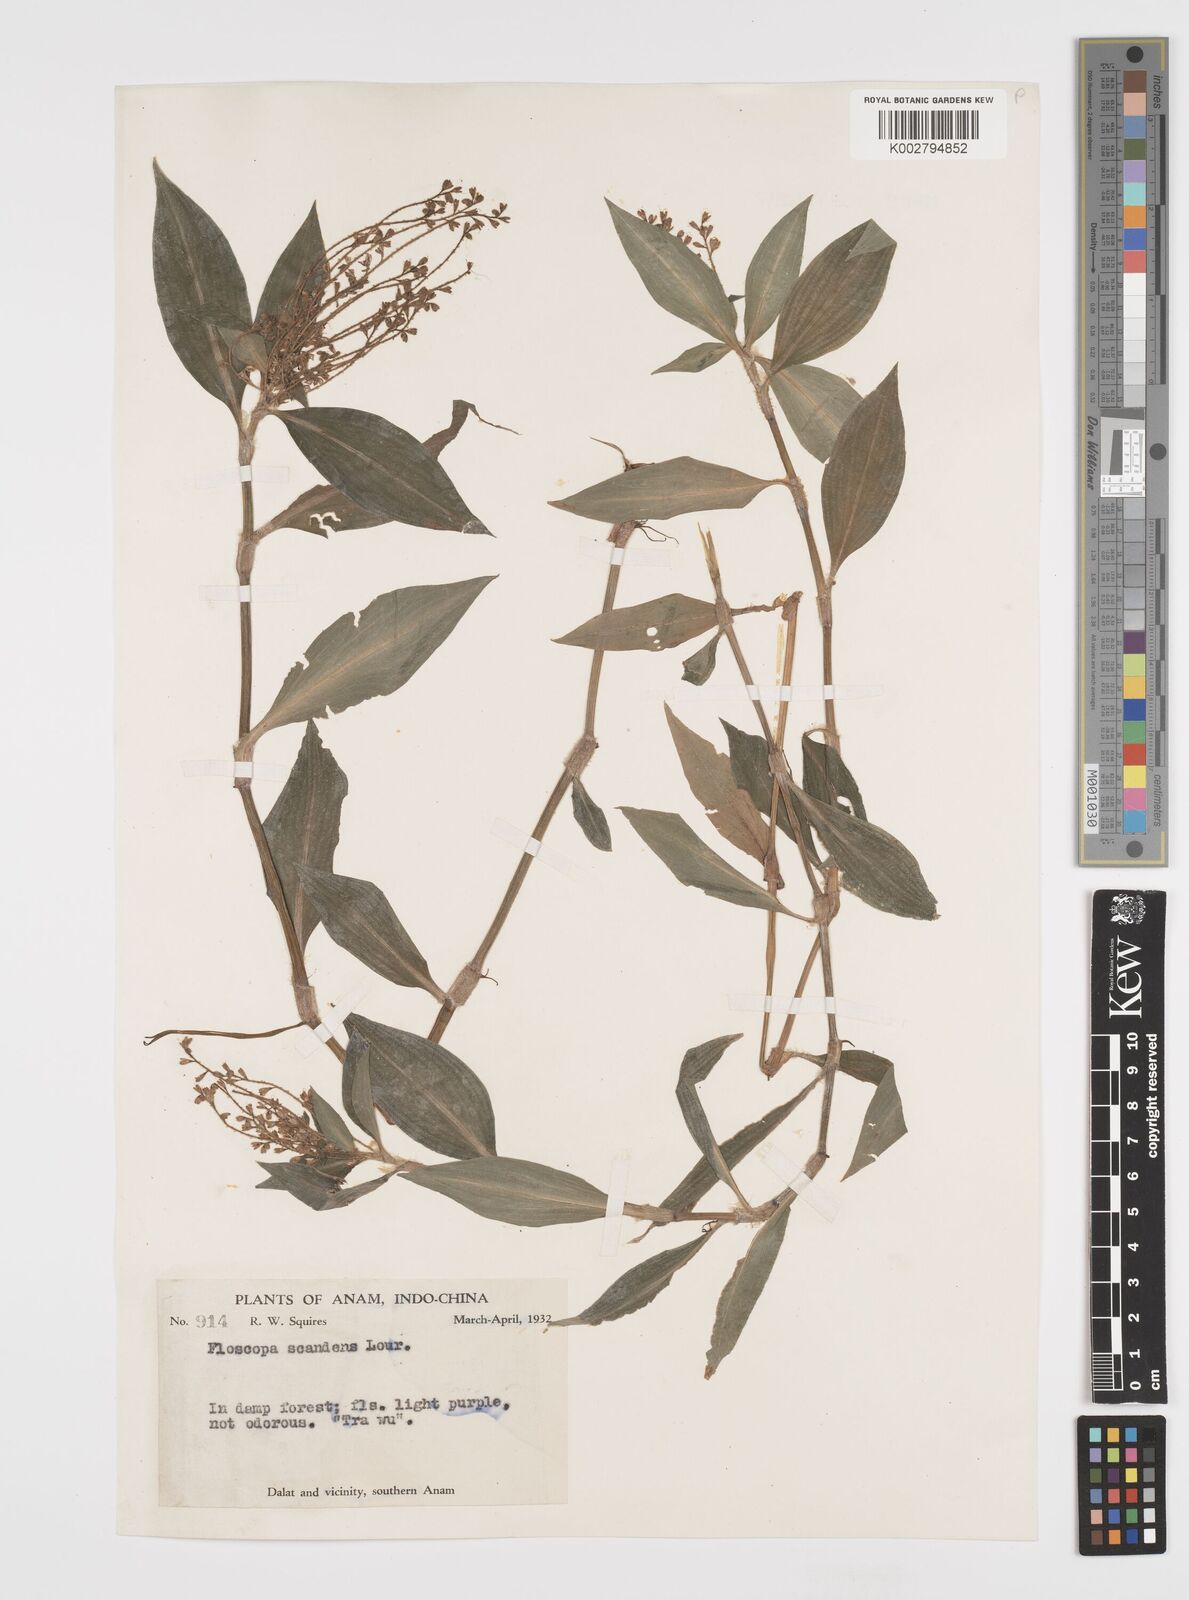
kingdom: Plantae
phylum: Tracheophyta
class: Liliopsida
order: Commelinales
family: Commelinaceae
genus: Floscopa
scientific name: Floscopa scandens
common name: Climbing flower cup
